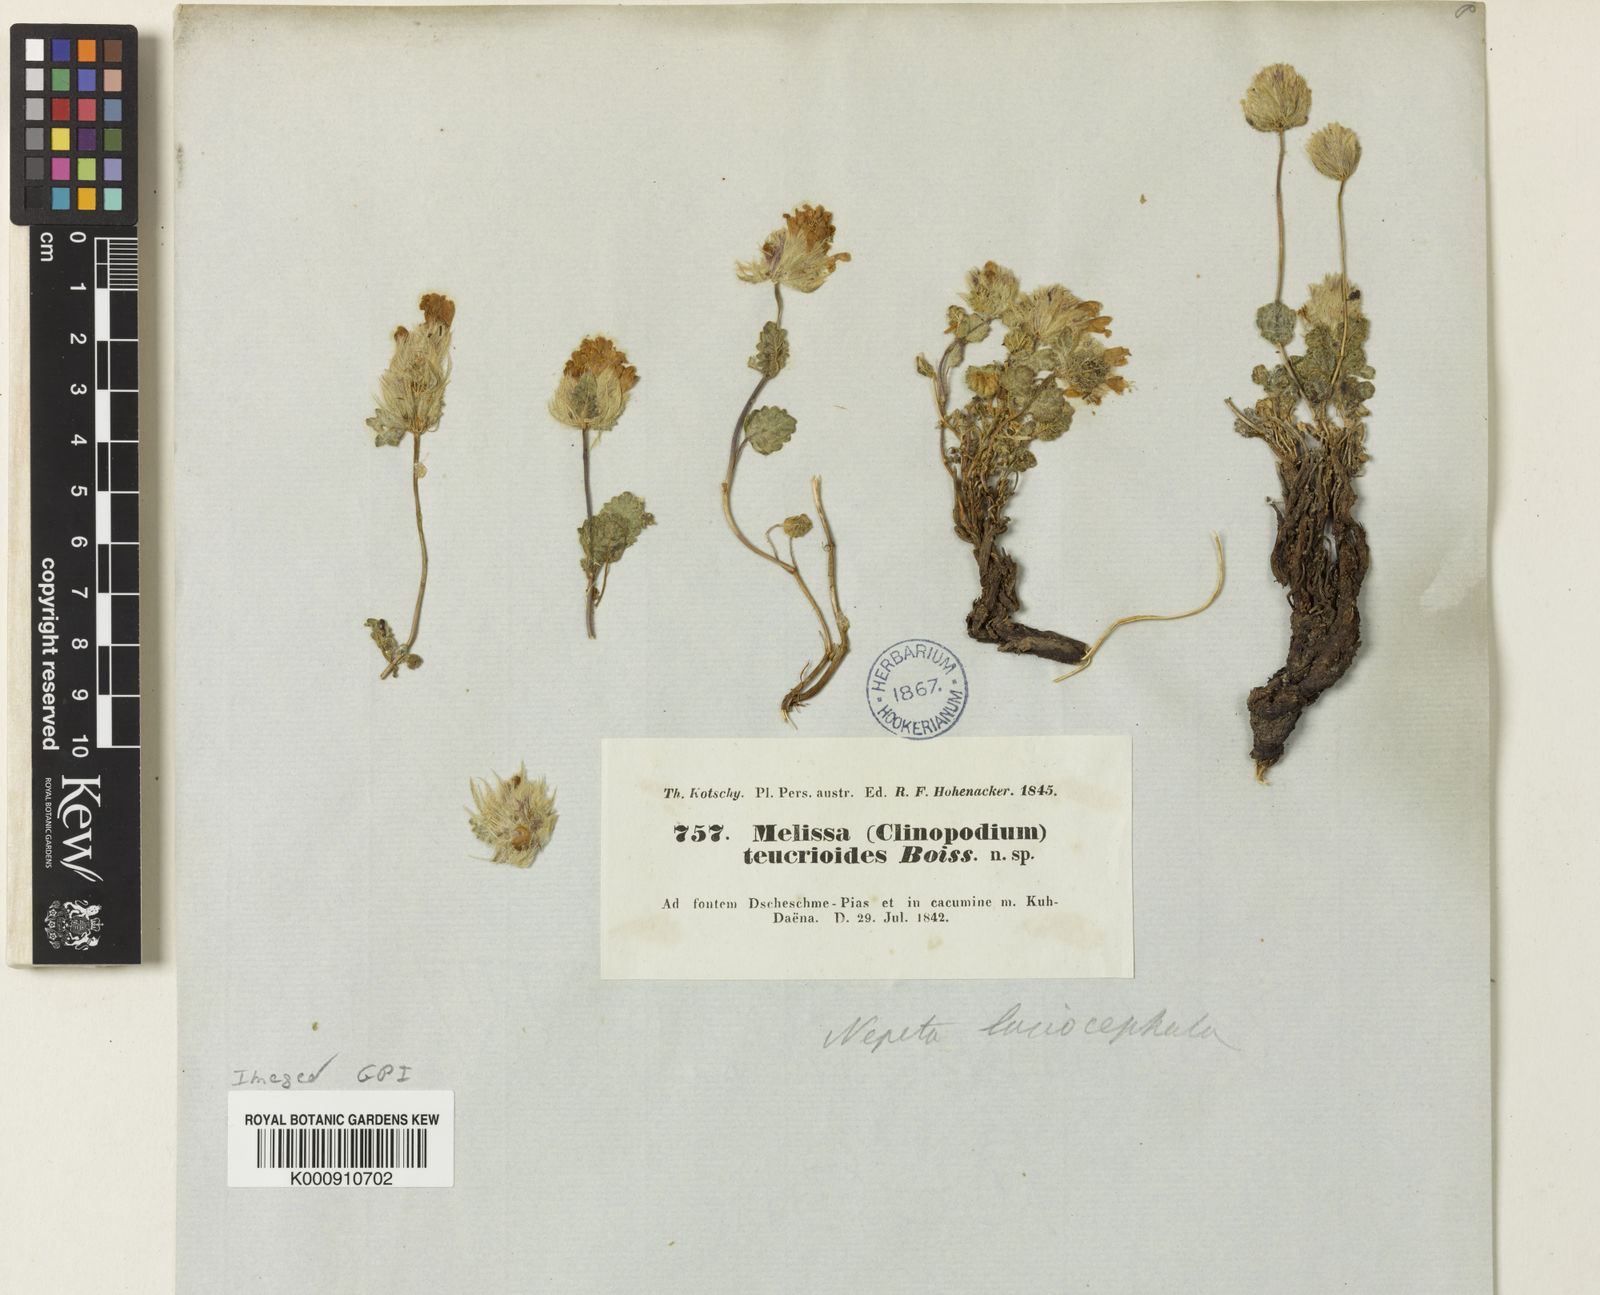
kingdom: Plantae
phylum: Tracheophyta
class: Magnoliopsida
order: Lamiales
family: Lamiaceae
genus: Nepeta
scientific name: Nepeta lasiocephala
